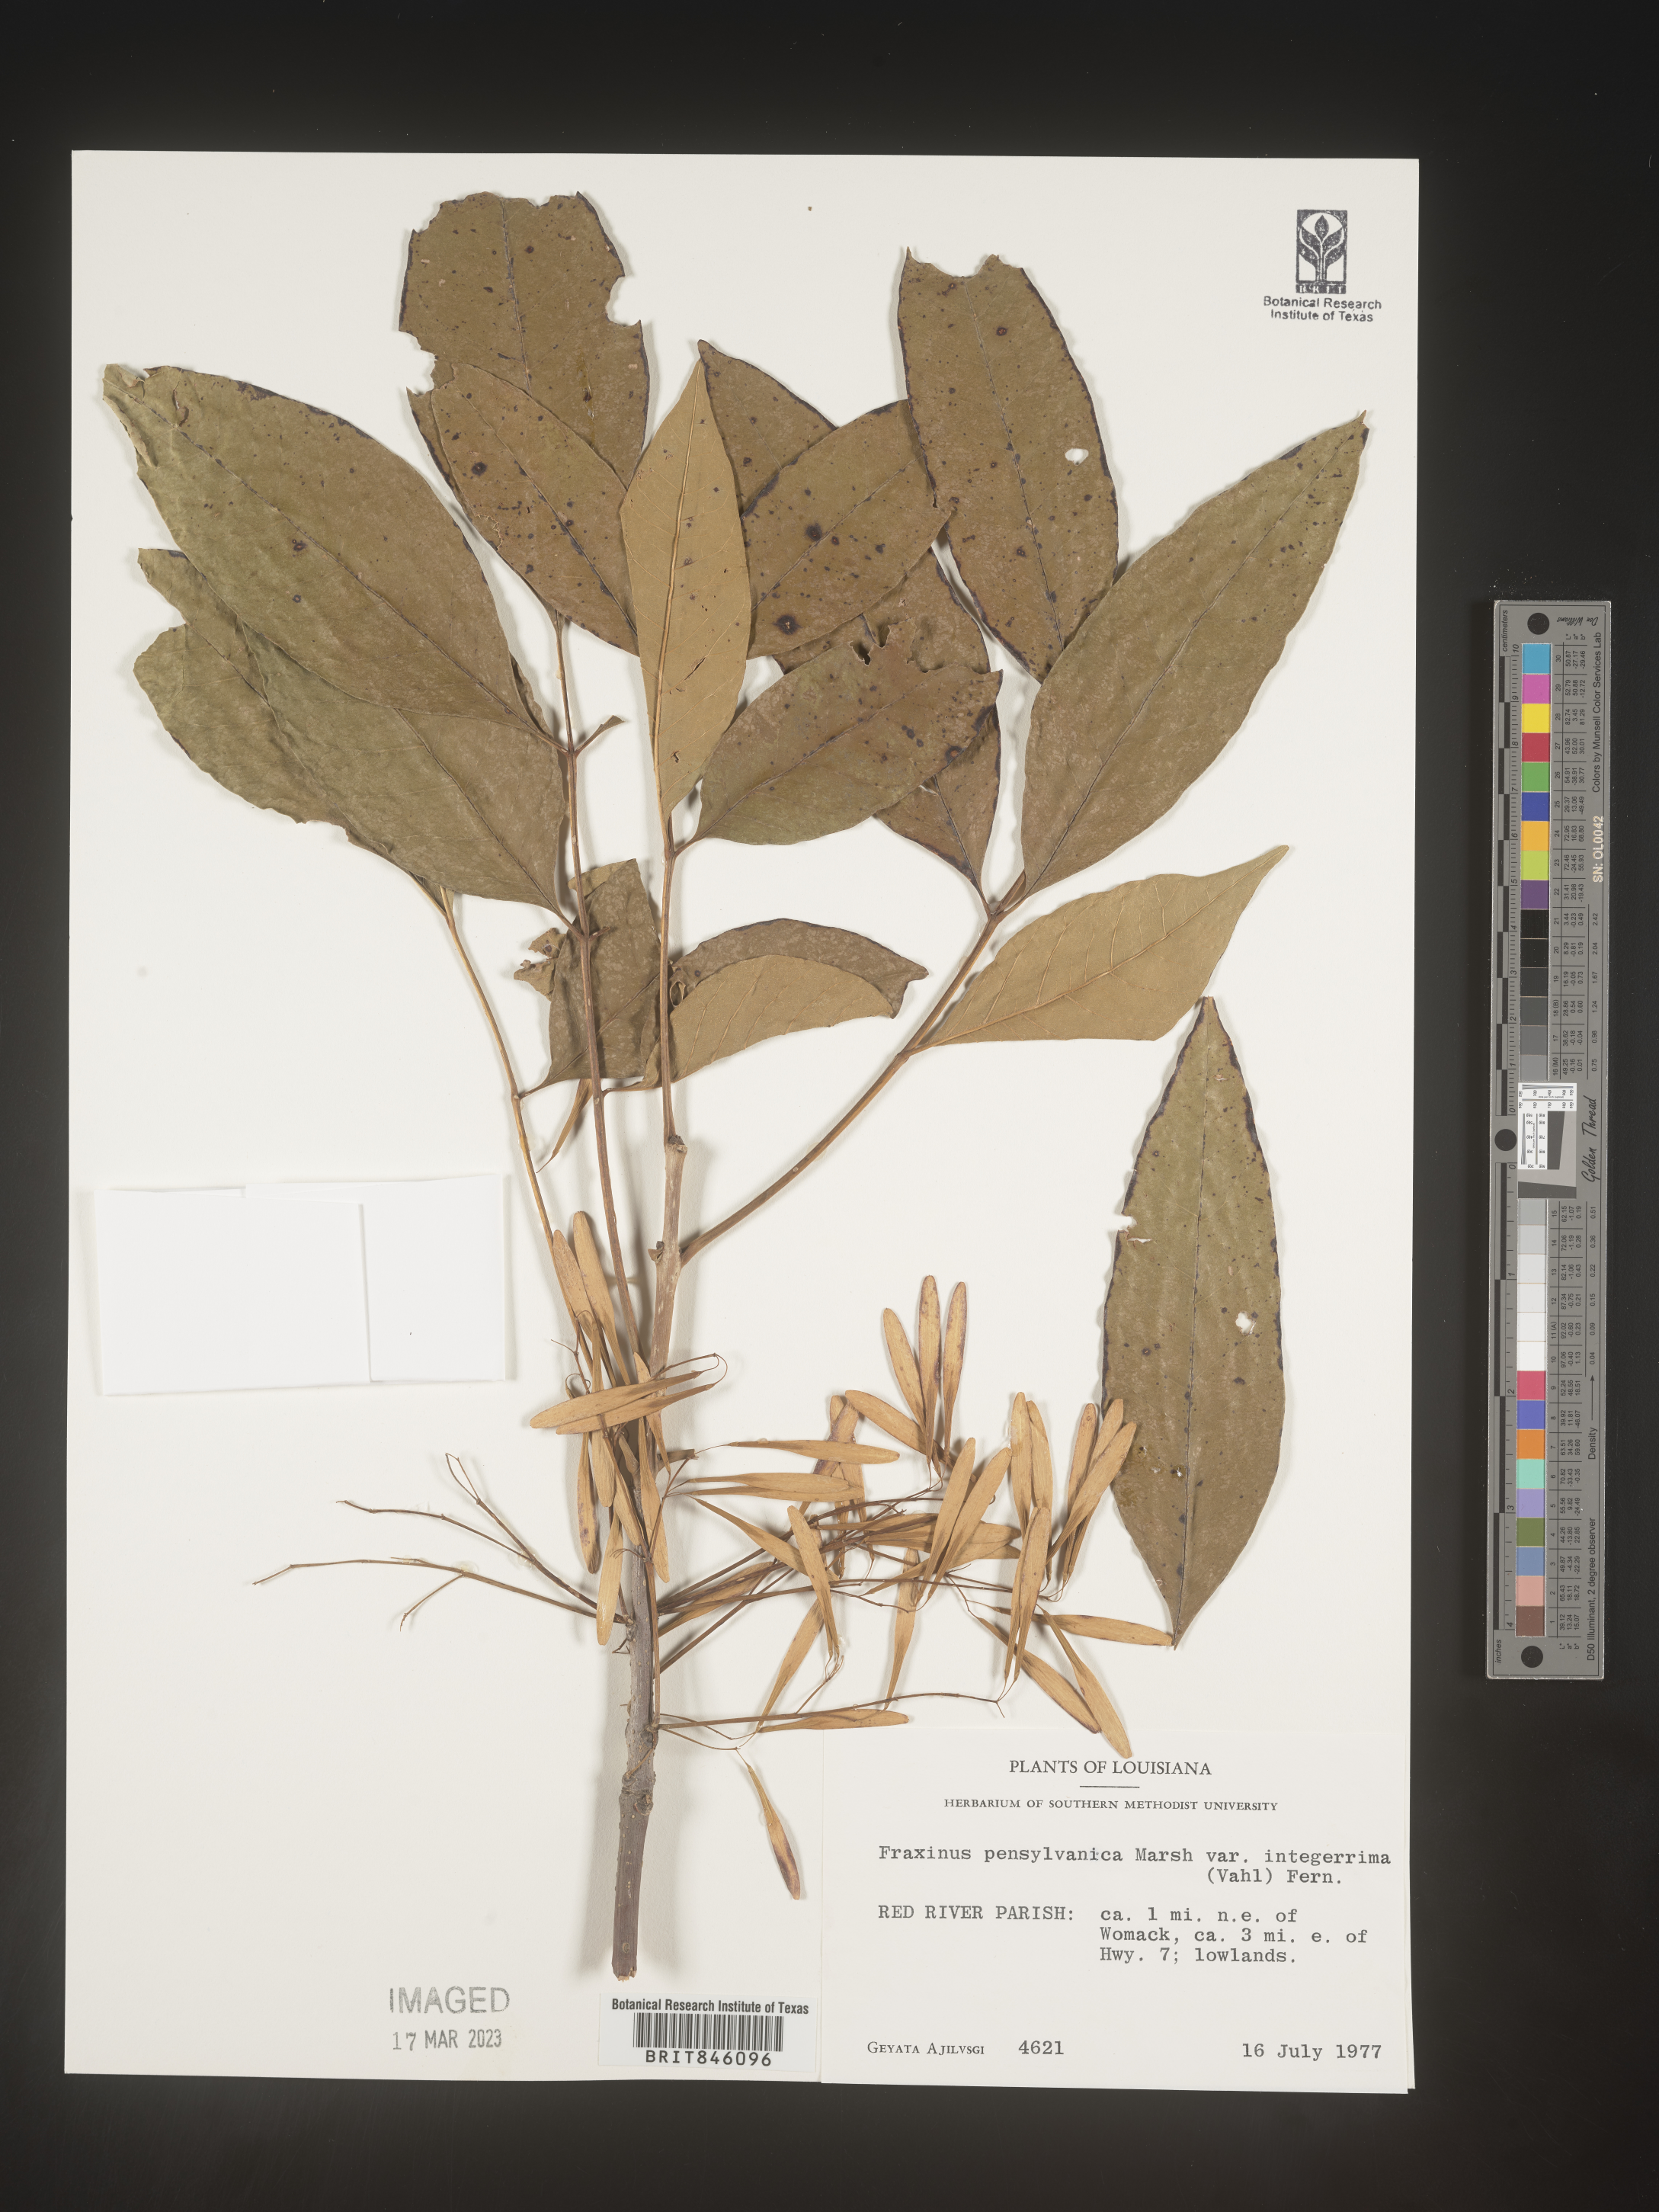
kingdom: Plantae
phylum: Tracheophyta
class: Magnoliopsida
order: Lamiales
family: Oleaceae
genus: Fraxinus
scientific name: Fraxinus pennsylvanica
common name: Green ash
